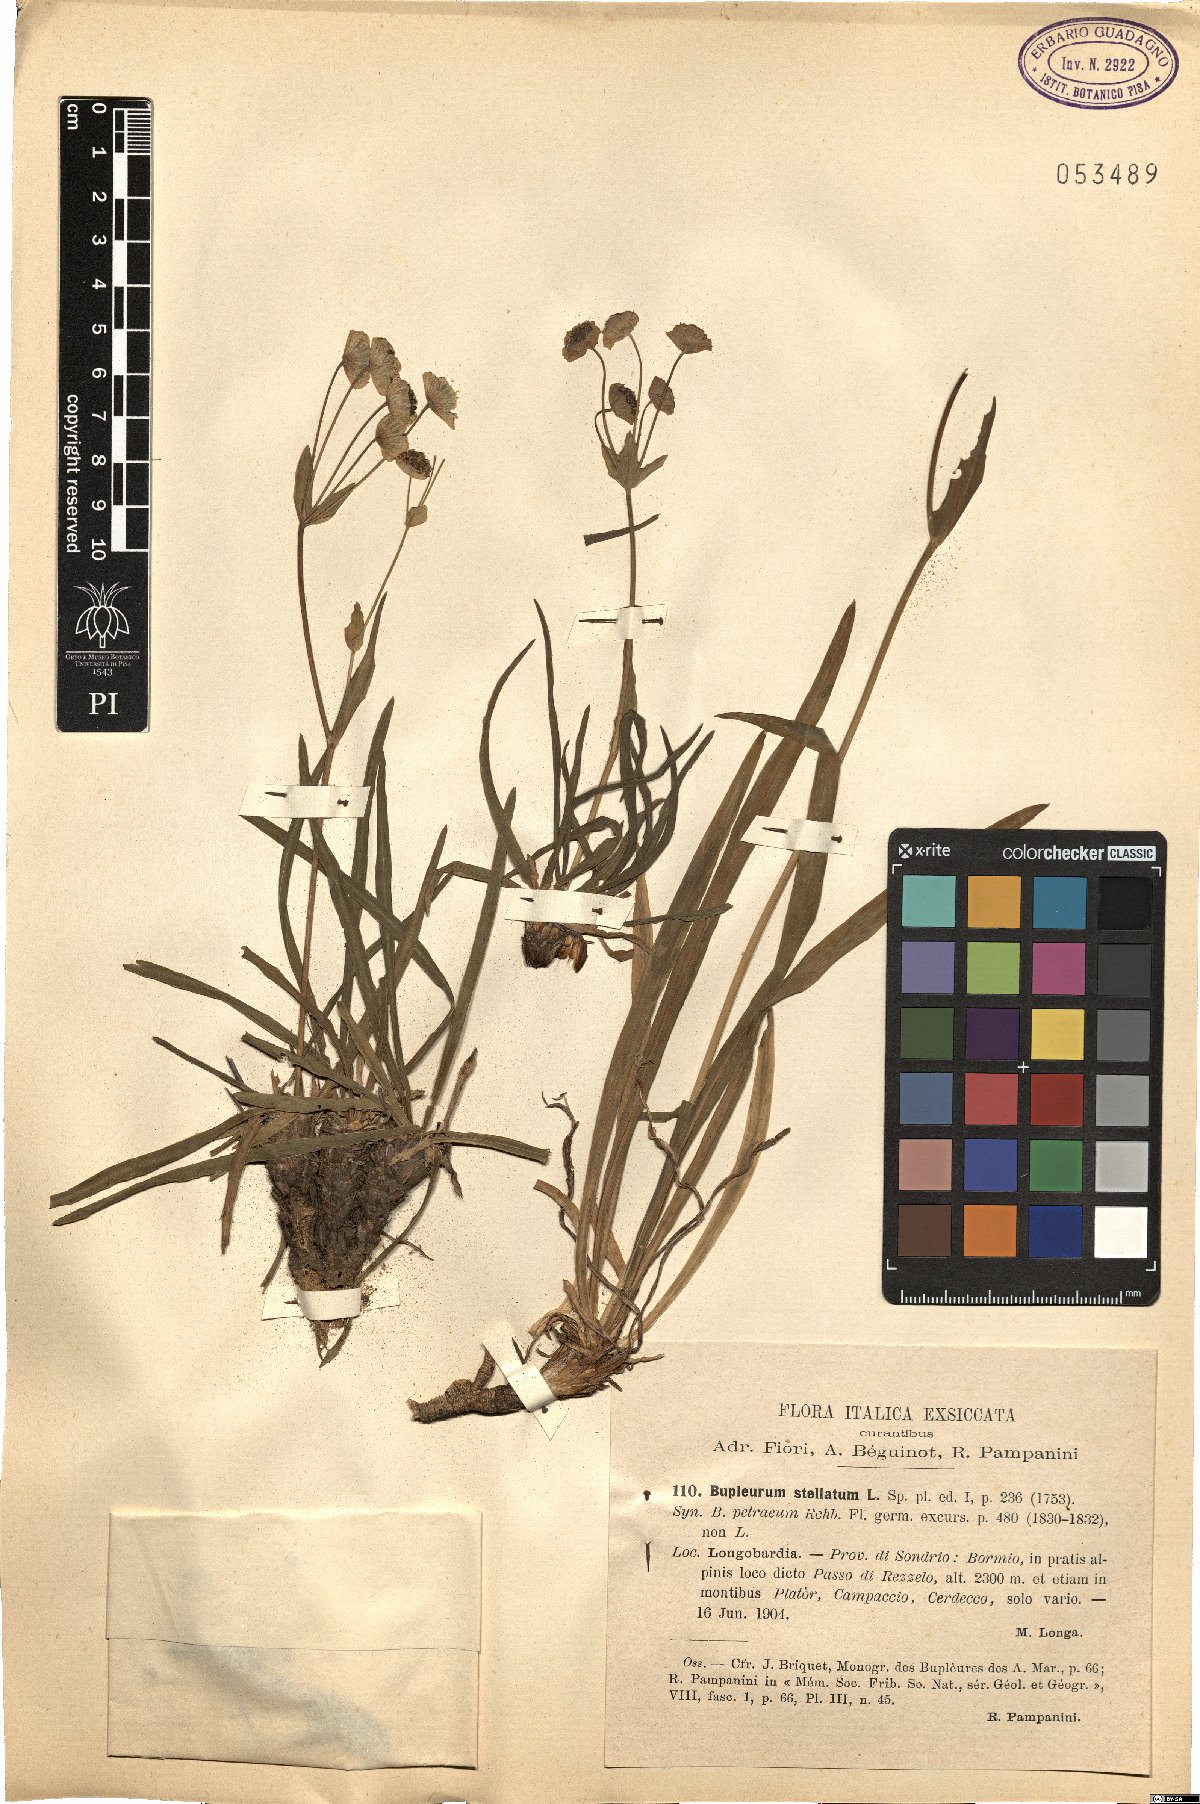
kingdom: Plantae
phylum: Tracheophyta
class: Magnoliopsida
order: Apiales
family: Apiaceae
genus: Bupleurum
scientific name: Bupleurum stellatum
